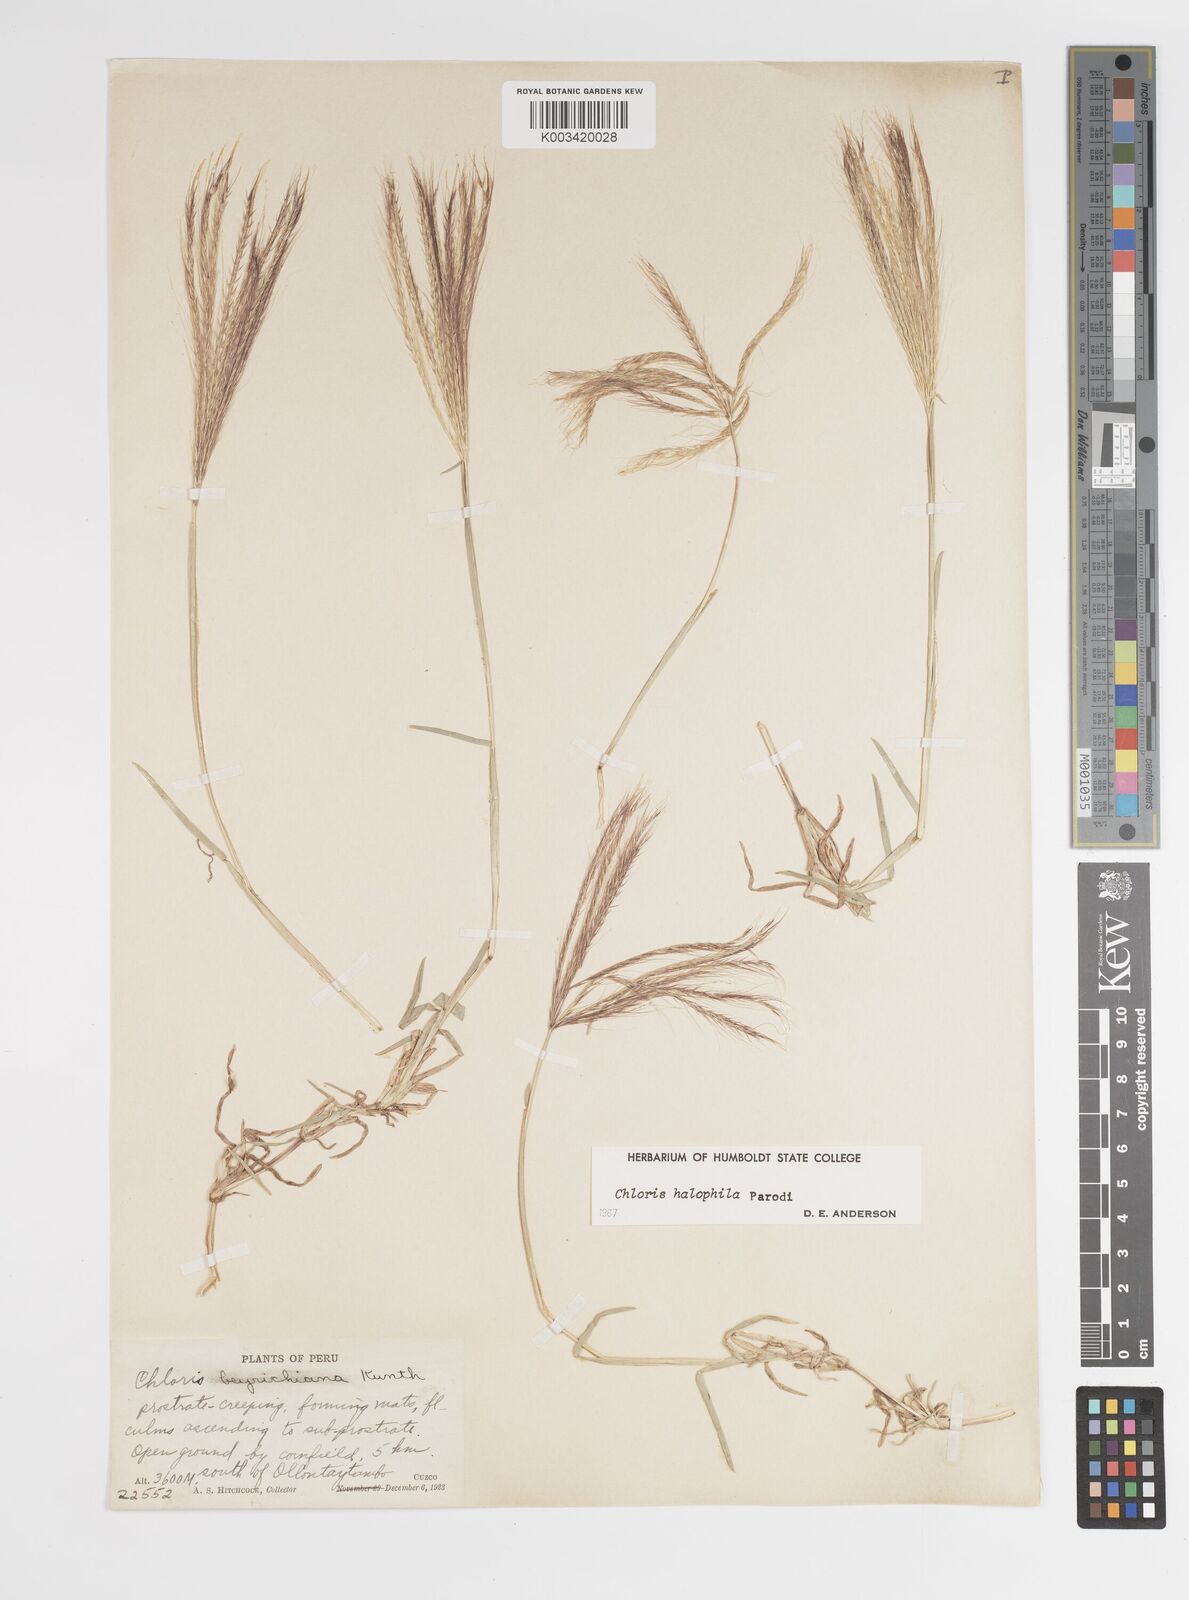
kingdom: Plantae
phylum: Tracheophyta
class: Liliopsida
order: Poales
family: Poaceae
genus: Chloris
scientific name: Chloris halophila
